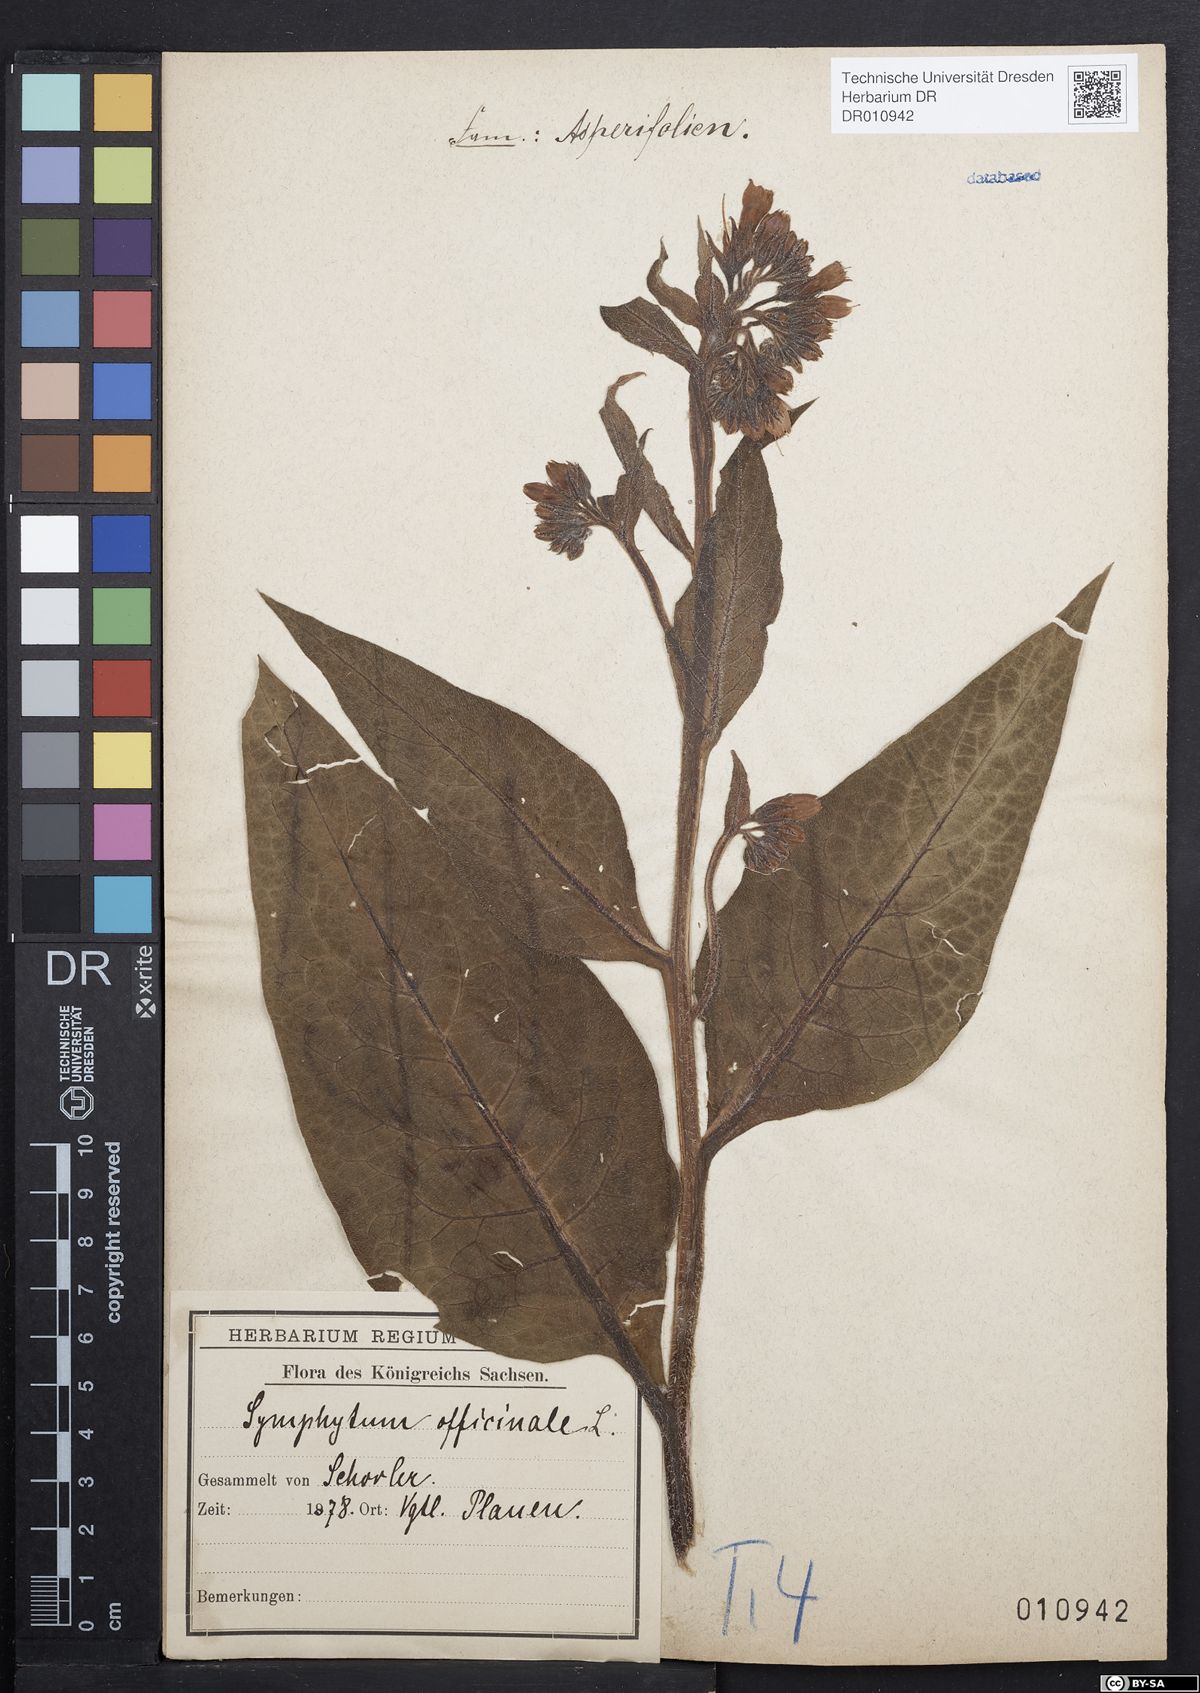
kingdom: Plantae
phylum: Tracheophyta
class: Magnoliopsida
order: Boraginales
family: Boraginaceae
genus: Symphytum
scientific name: Symphytum officinale
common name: Common comfrey
